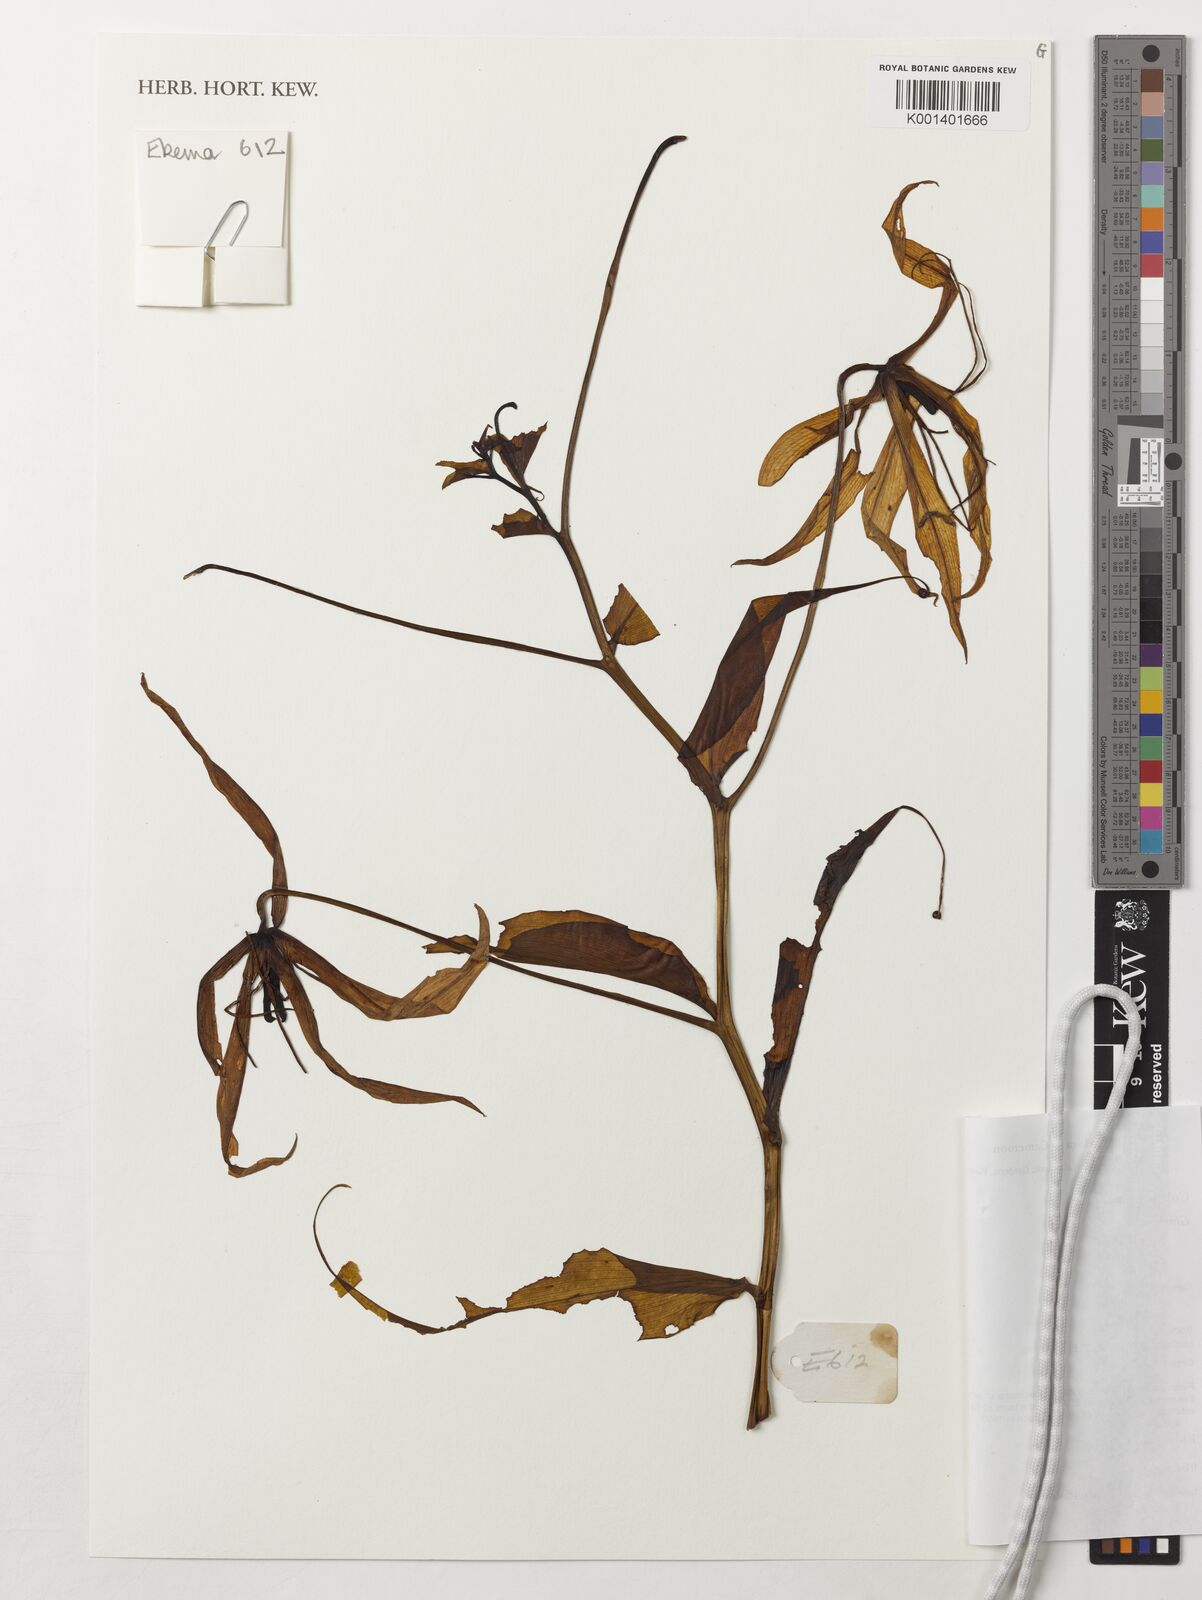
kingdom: Plantae
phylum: Tracheophyta
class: Liliopsida
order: Liliales
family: Colchicaceae
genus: Gloriosa
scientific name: Gloriosa
